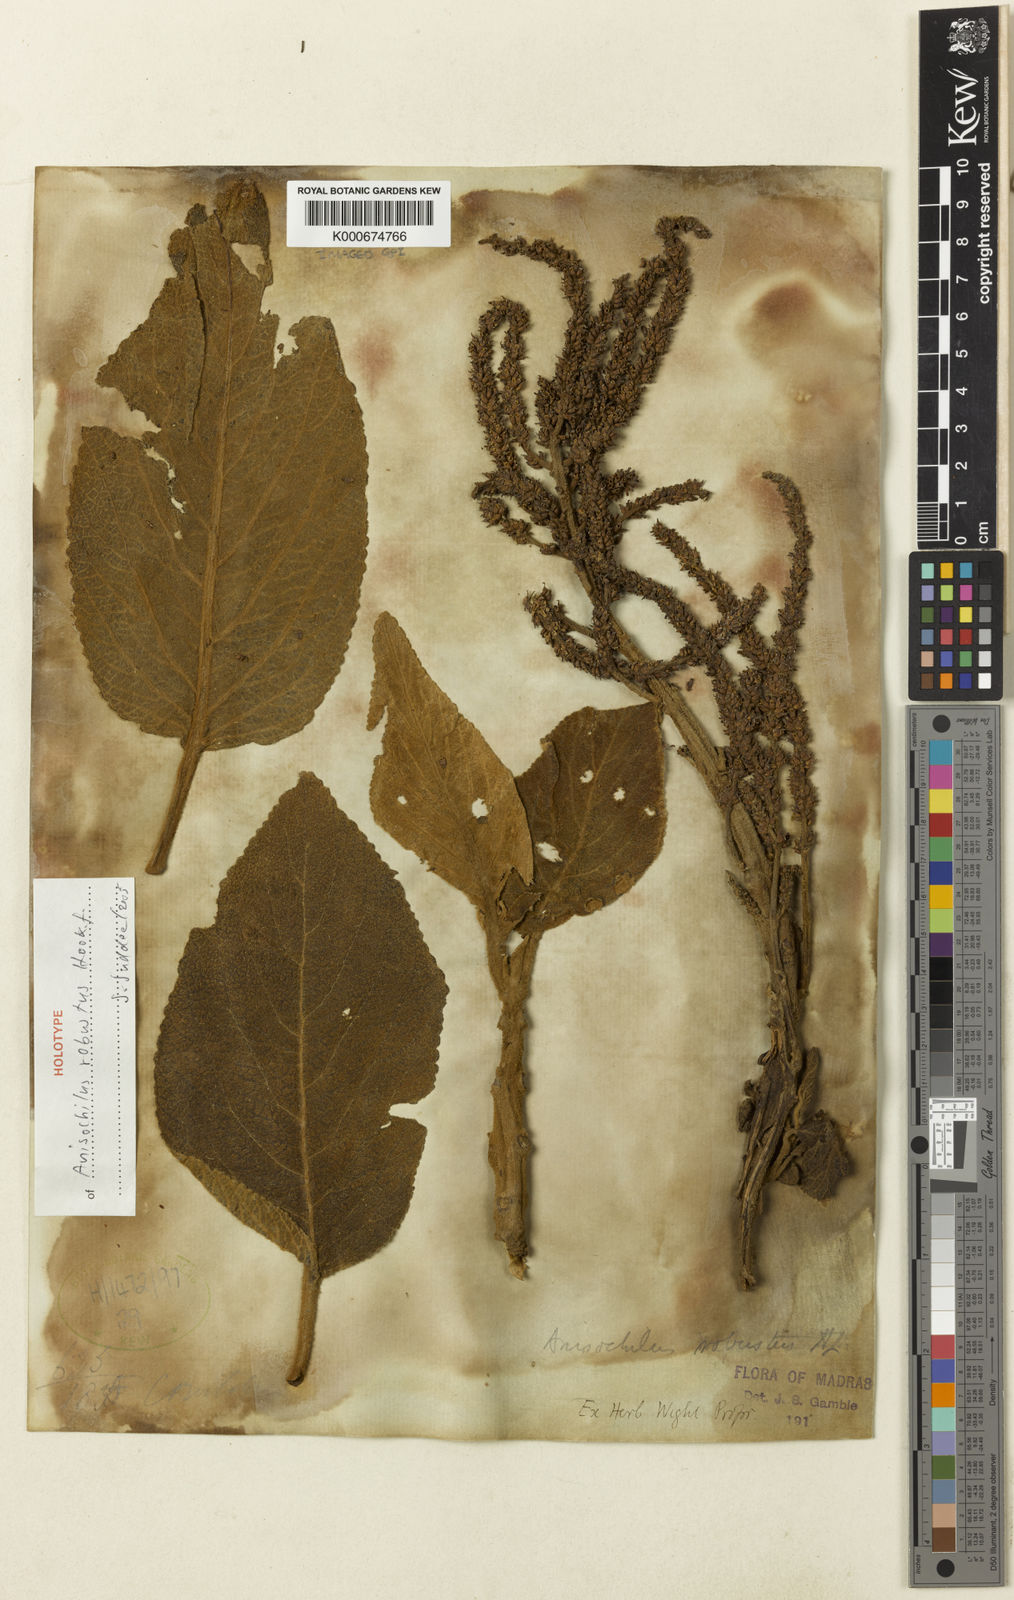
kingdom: Plantae
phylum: Tracheophyta
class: Magnoliopsida
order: Lamiales
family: Lamiaceae
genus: Coleus
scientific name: Coleus robustus
